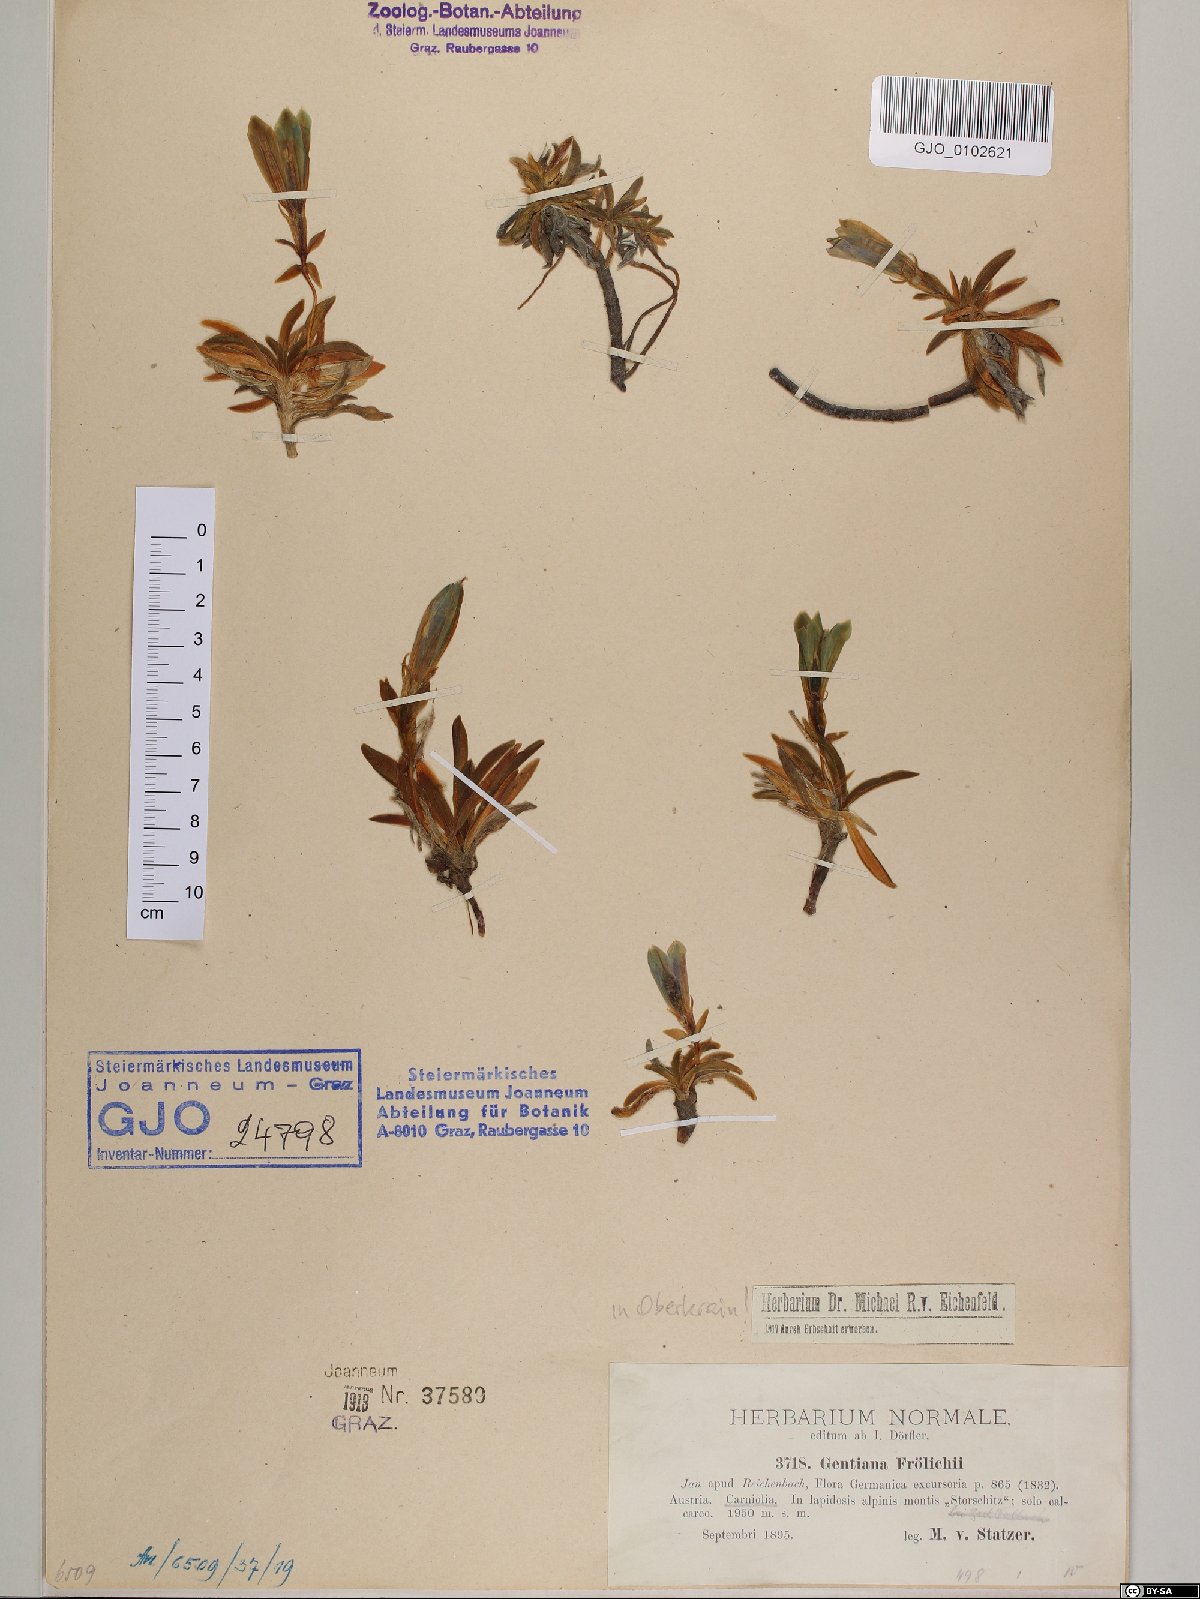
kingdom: Plantae
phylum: Tracheophyta
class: Magnoliopsida
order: Gentianales
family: Gentianaceae
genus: Gentiana
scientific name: Gentiana froelichii
